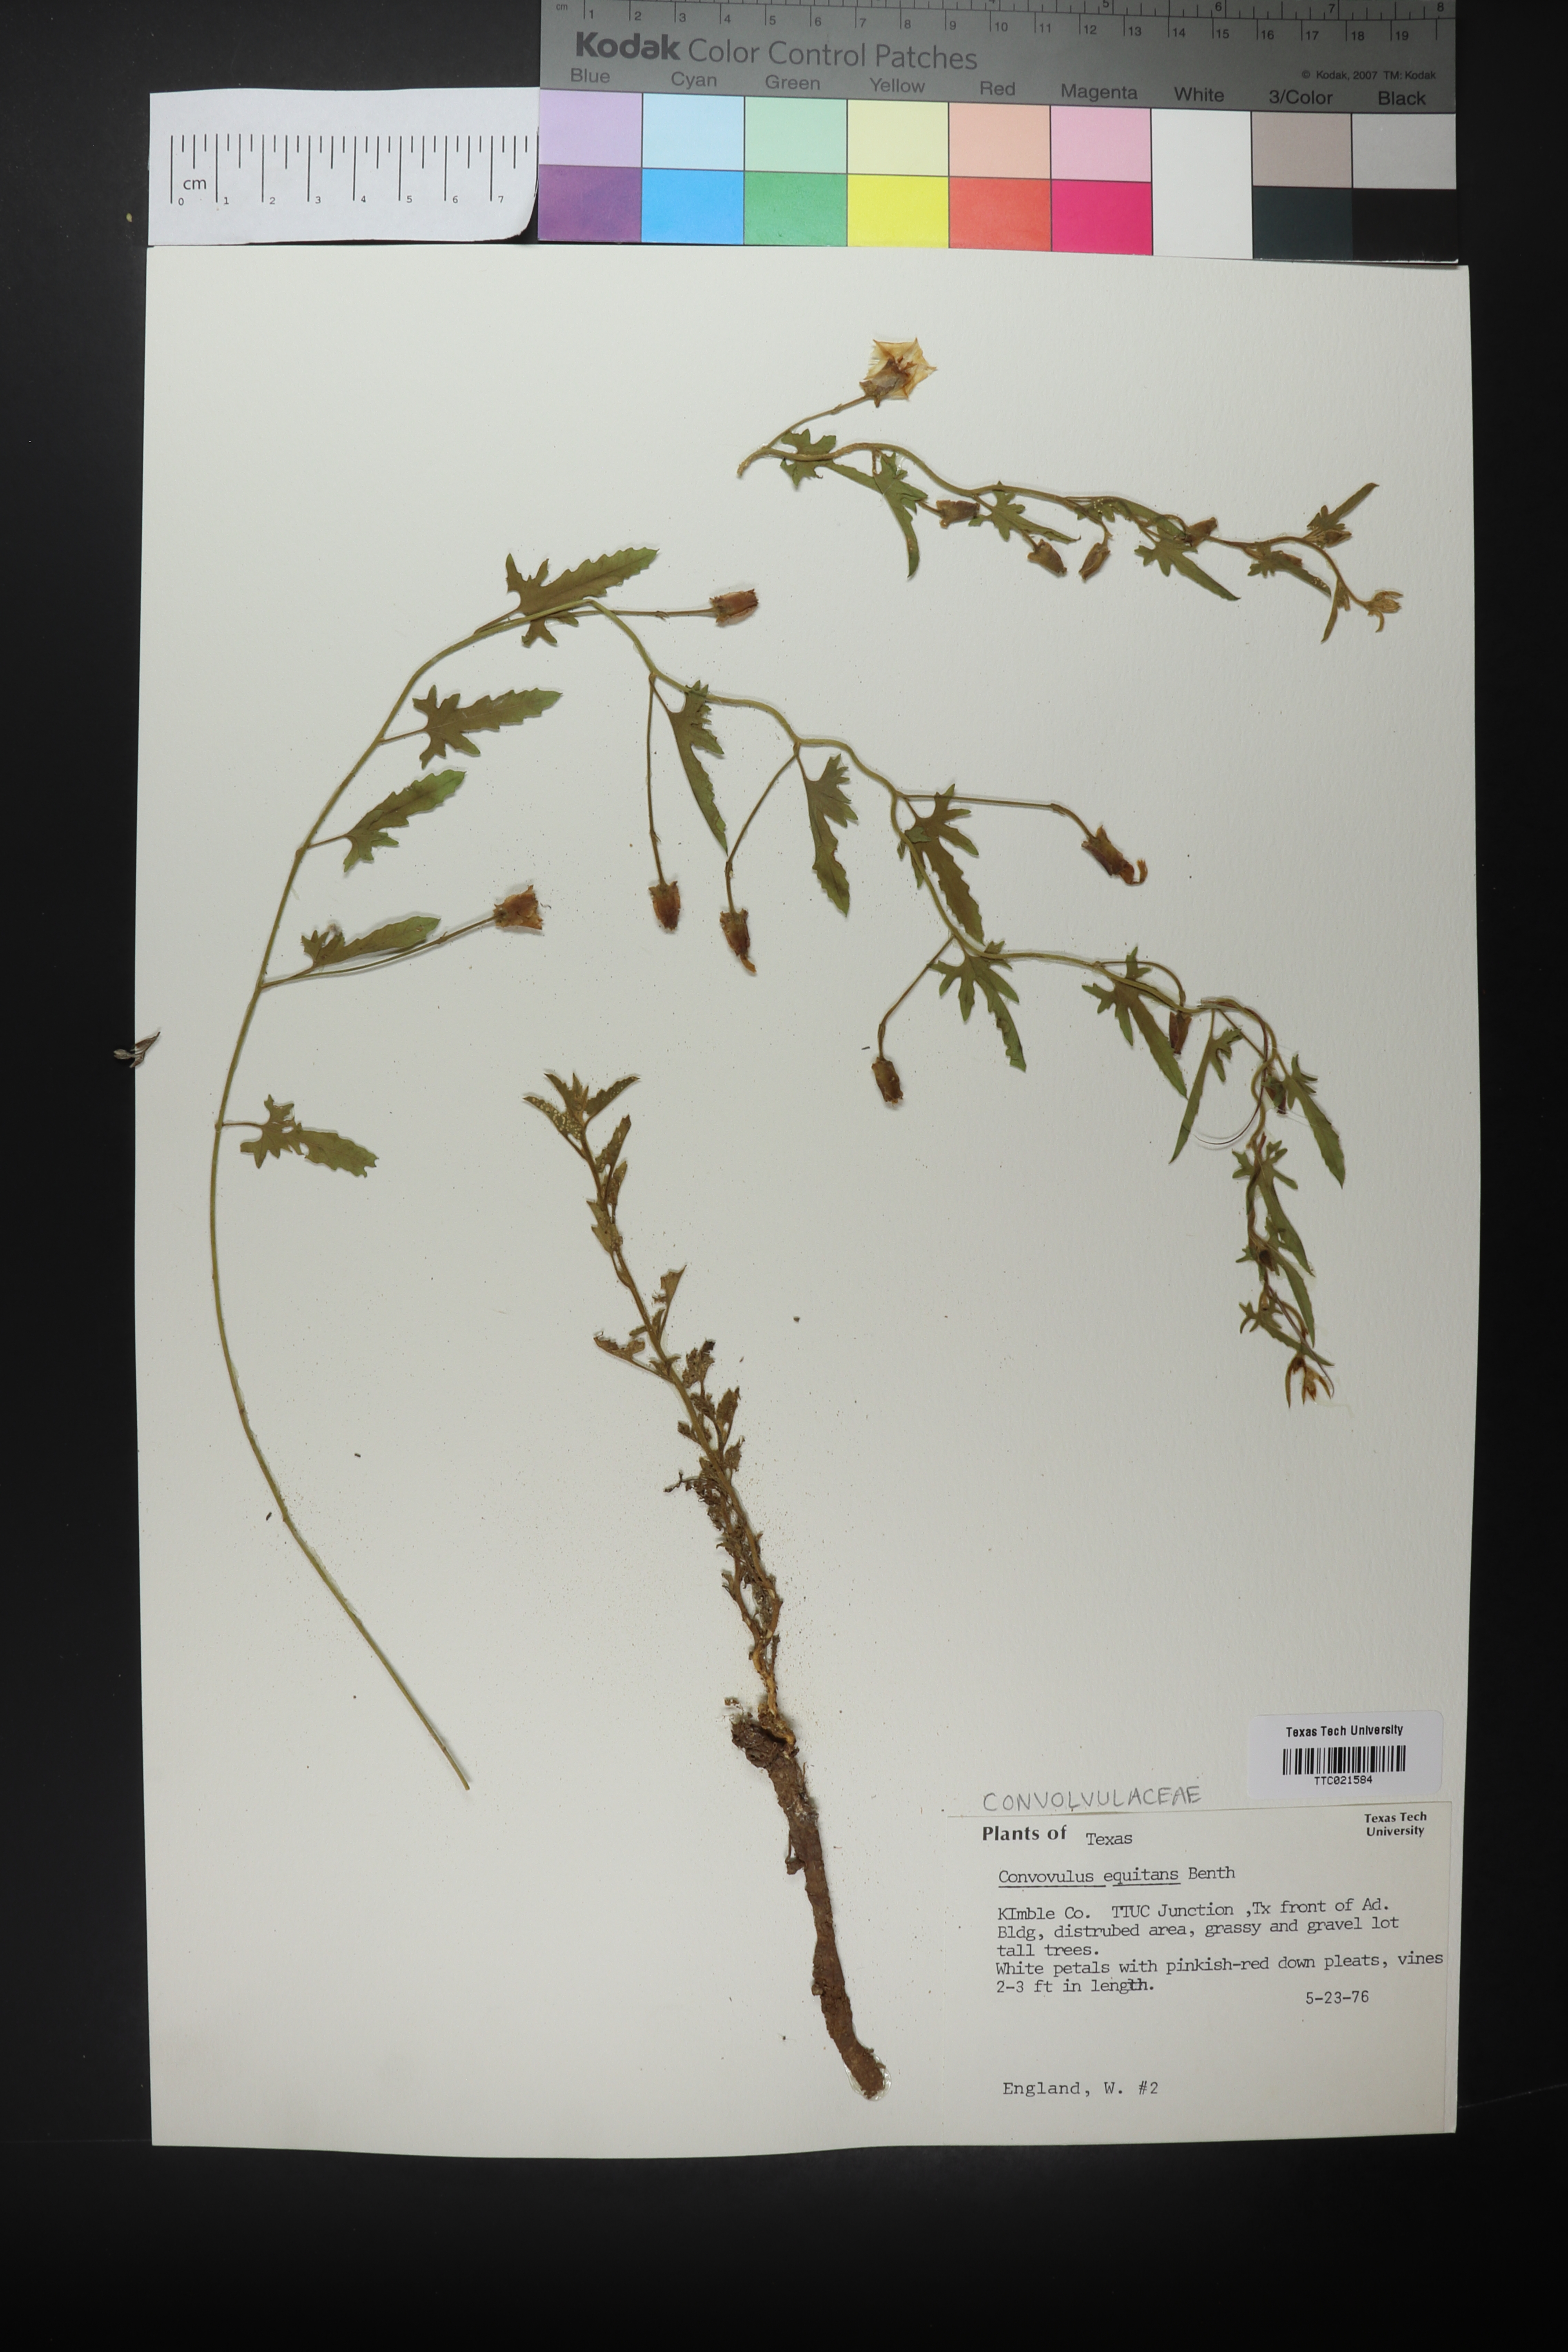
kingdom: Plantae
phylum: Tracheophyta
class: Magnoliopsida
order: Solanales
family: Convolvulaceae
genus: Convolvulus
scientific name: Convolvulus equitans
